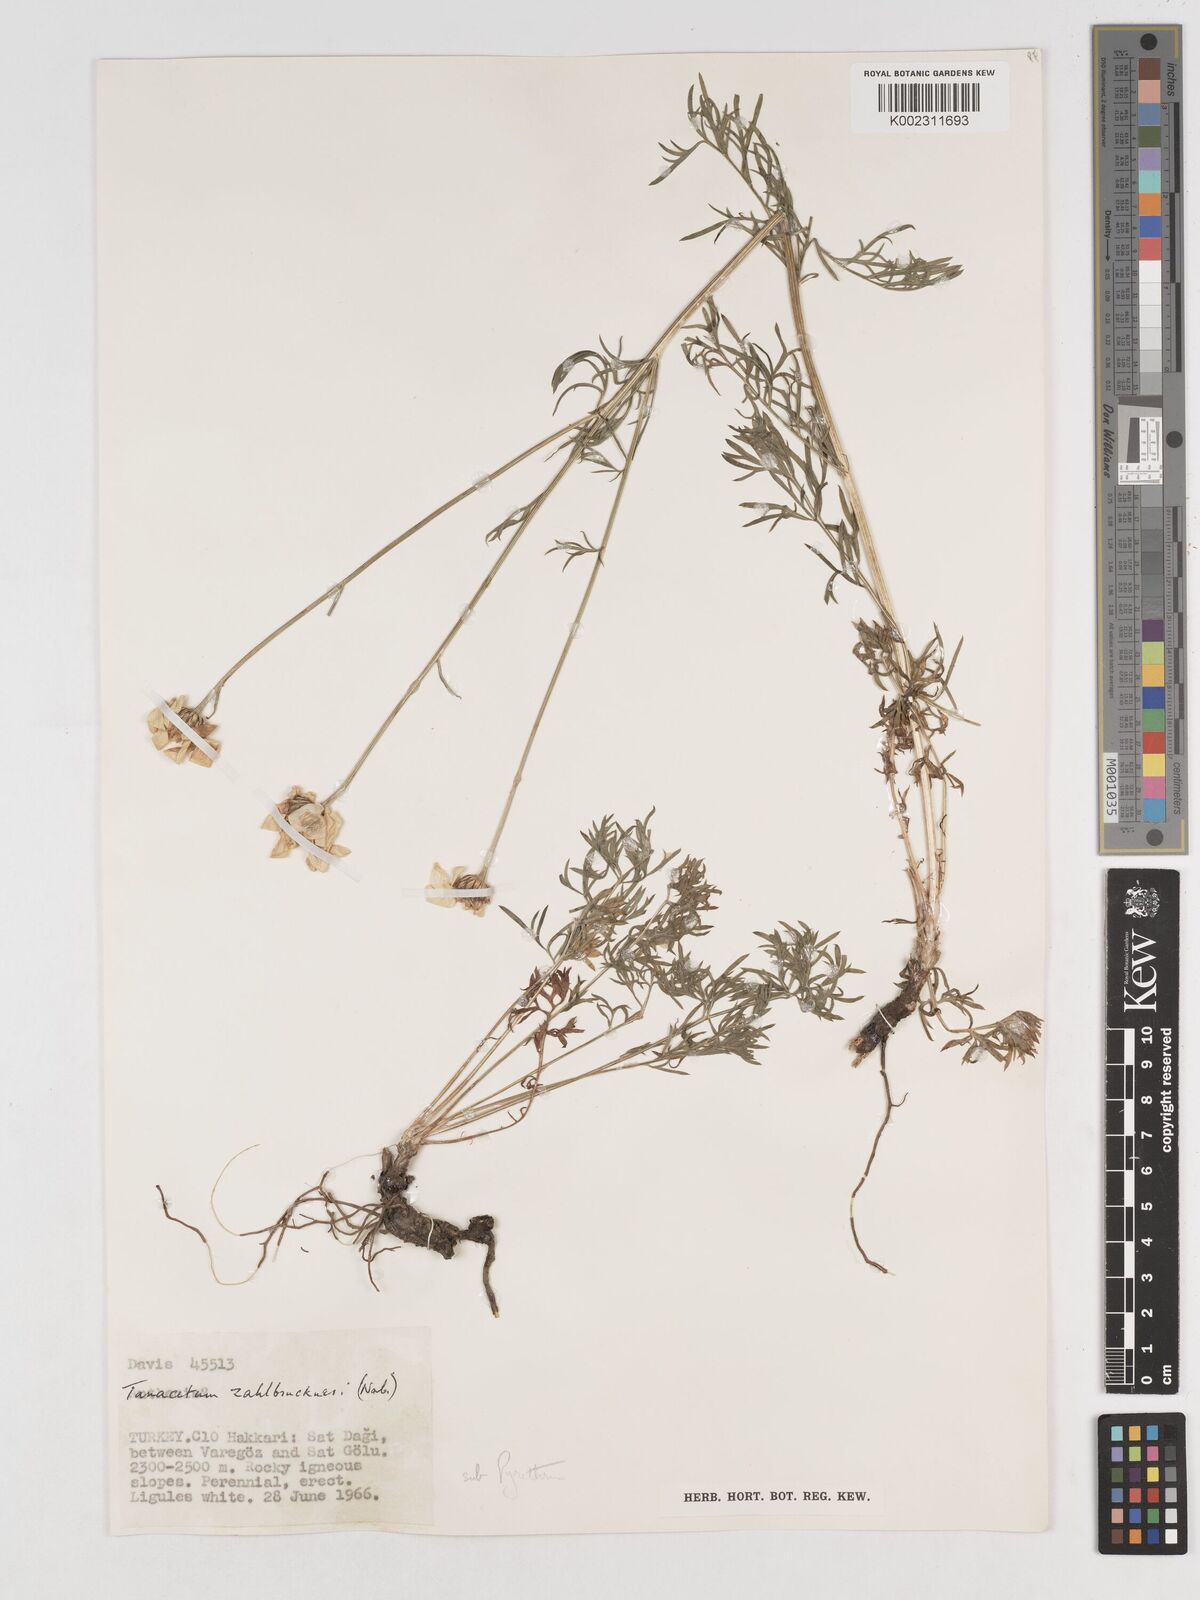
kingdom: Plantae
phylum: Tracheophyta
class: Magnoliopsida
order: Asterales
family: Asteraceae
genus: Tanacetum
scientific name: Tanacetum zahlbruckneri
